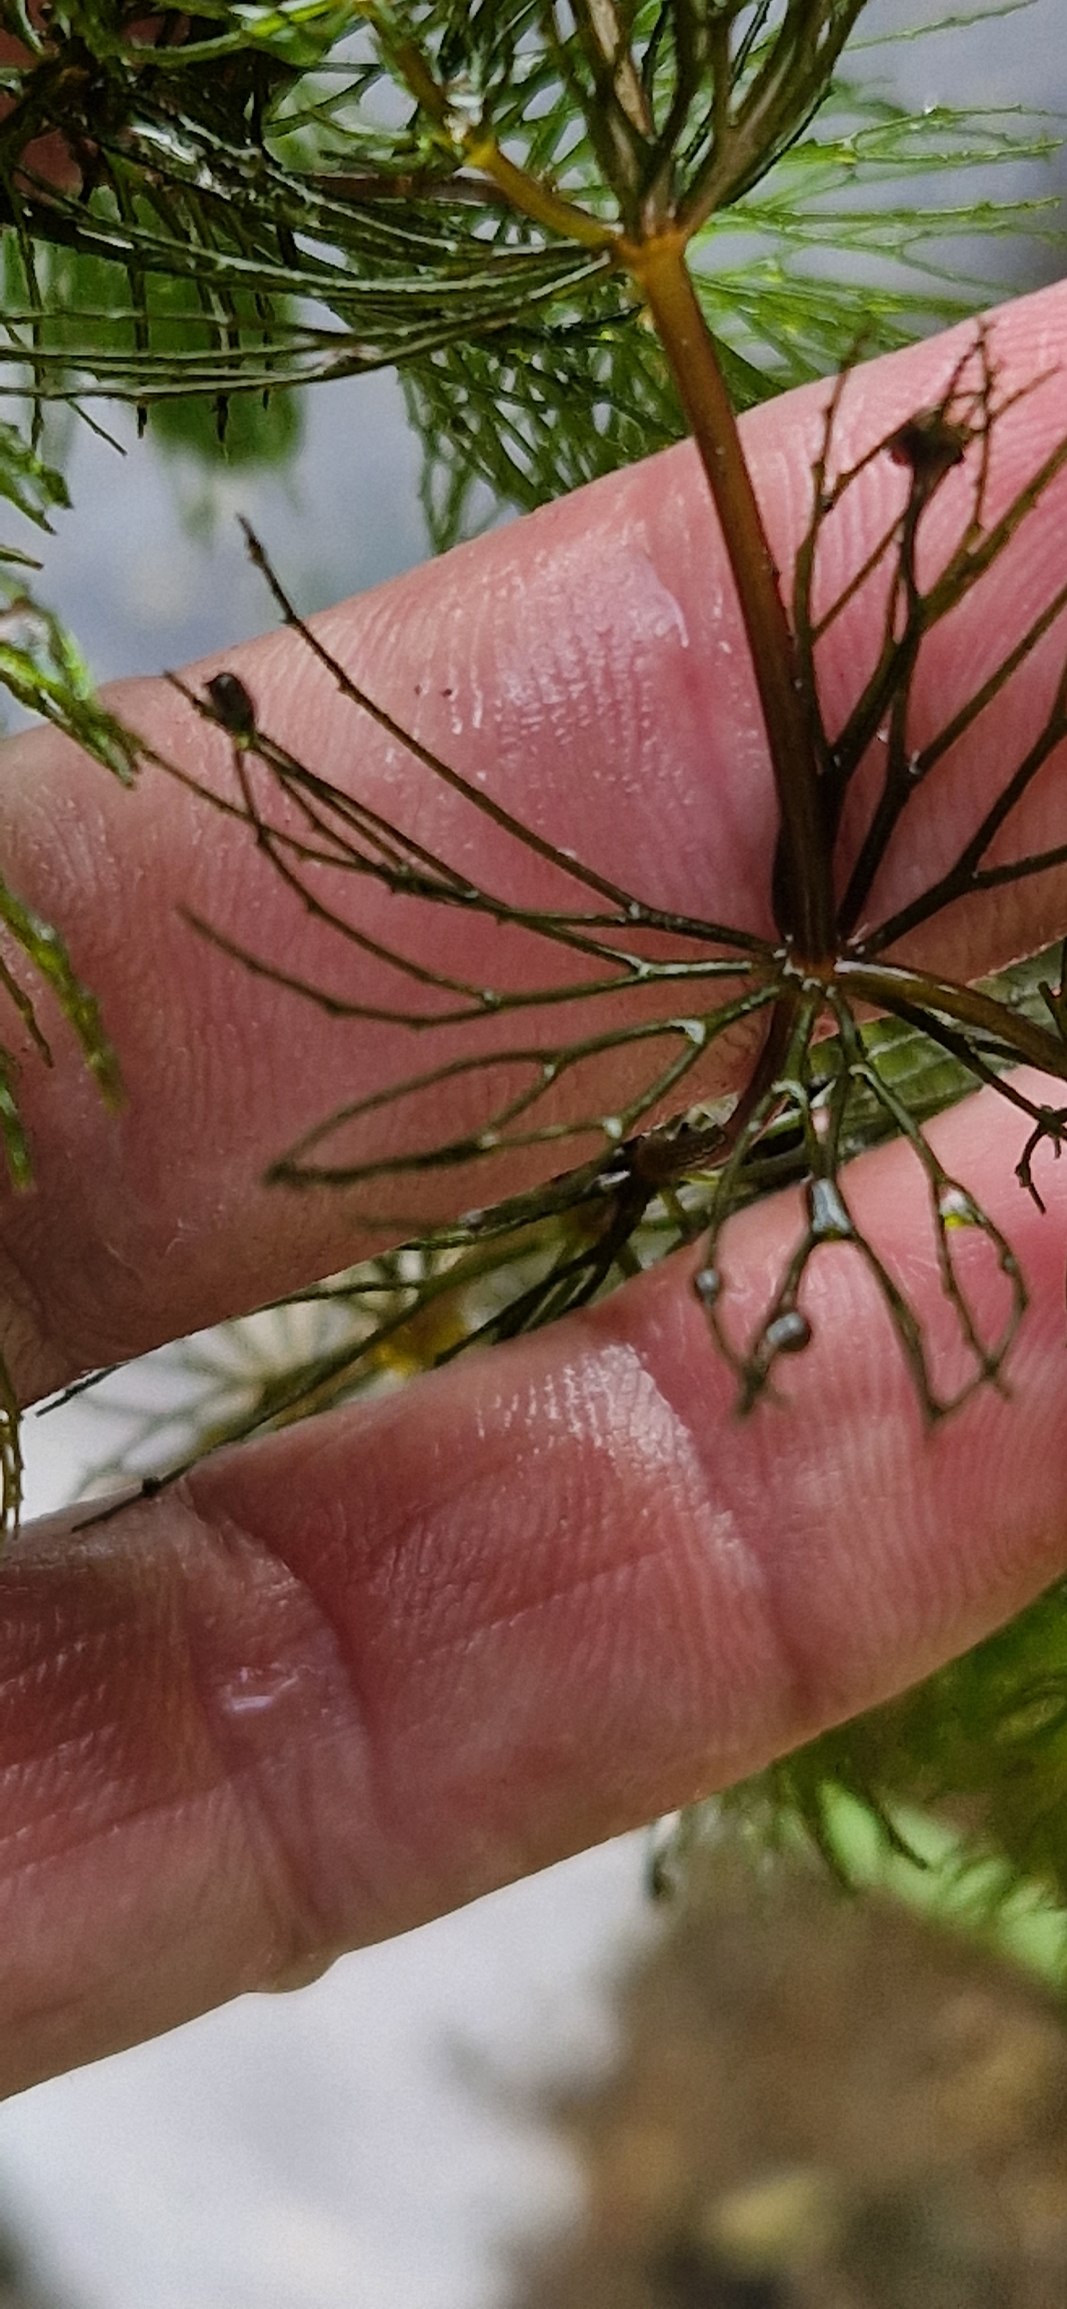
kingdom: Plantae
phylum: Tracheophyta
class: Magnoliopsida
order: Ceratophyllales
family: Ceratophyllaceae
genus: Ceratophyllum
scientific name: Ceratophyllum demersum
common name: Tornfrøet hornblad
